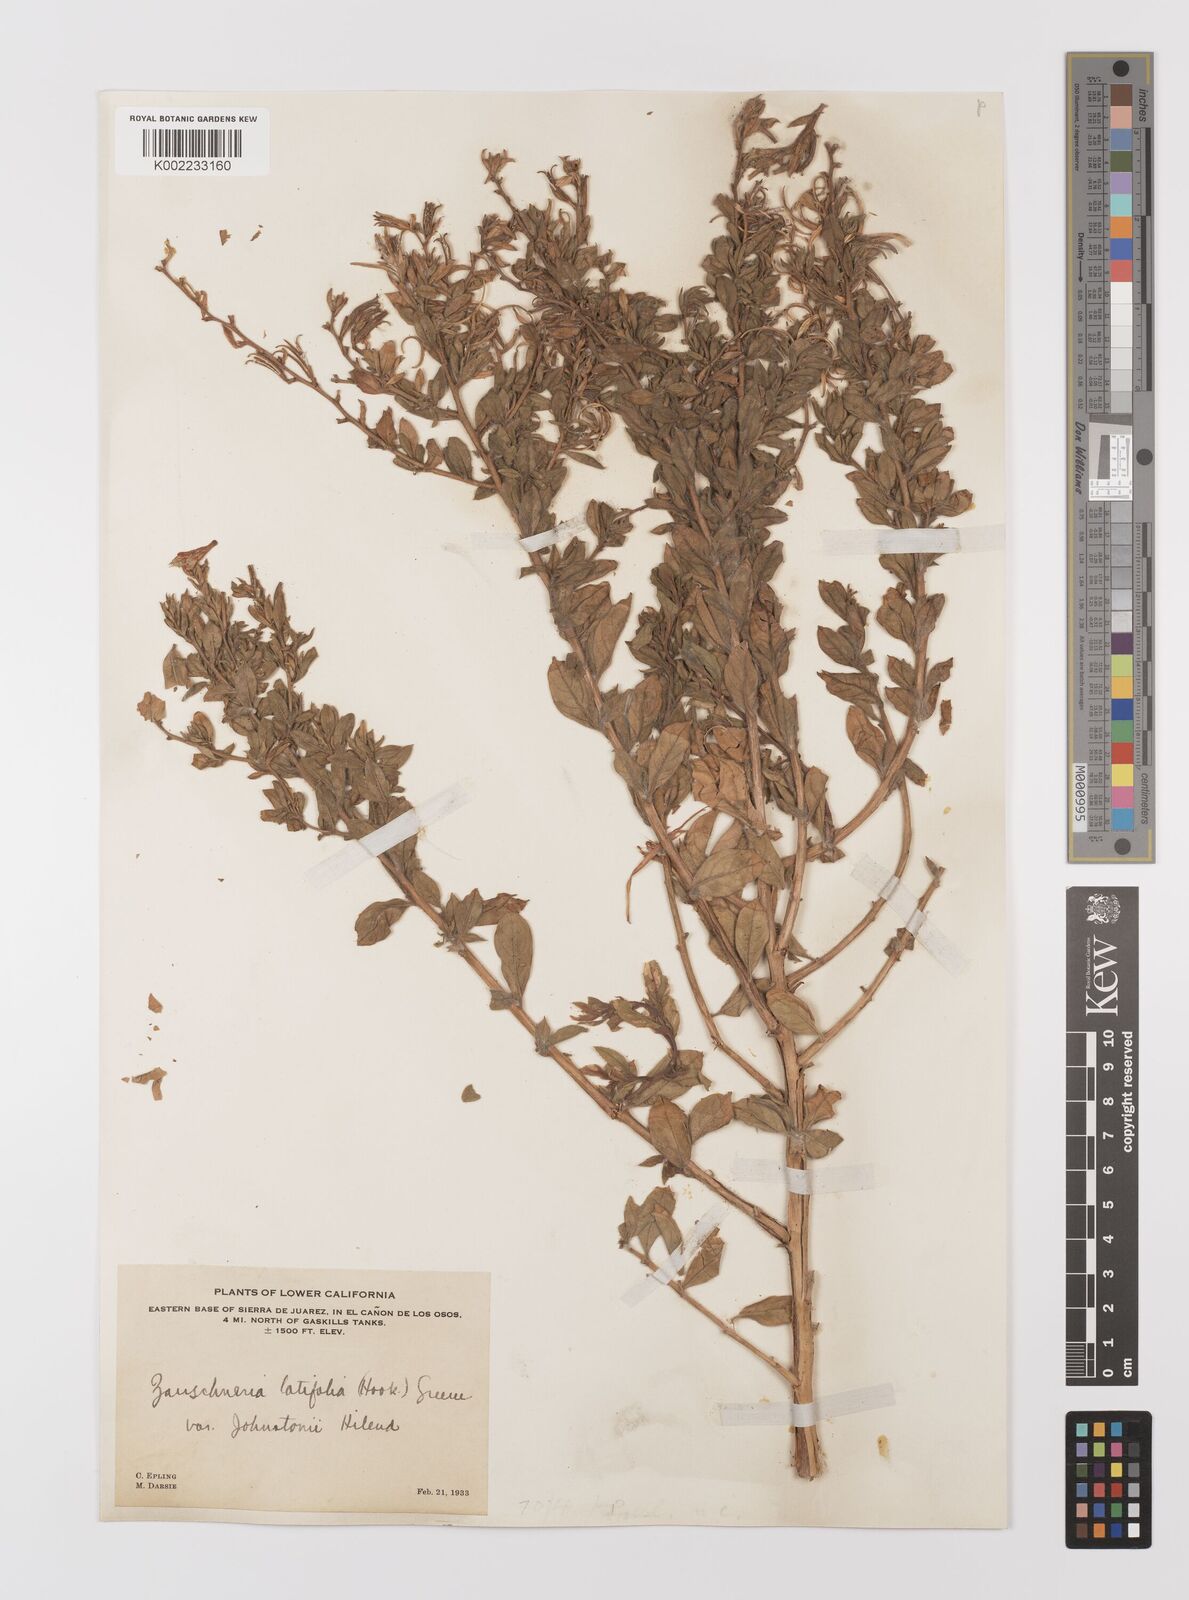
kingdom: Plantae
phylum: Tracheophyta
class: Magnoliopsida
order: Myrtales
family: Onagraceae
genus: Epilobium
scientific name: Epilobium canum
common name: California-fuchsia
